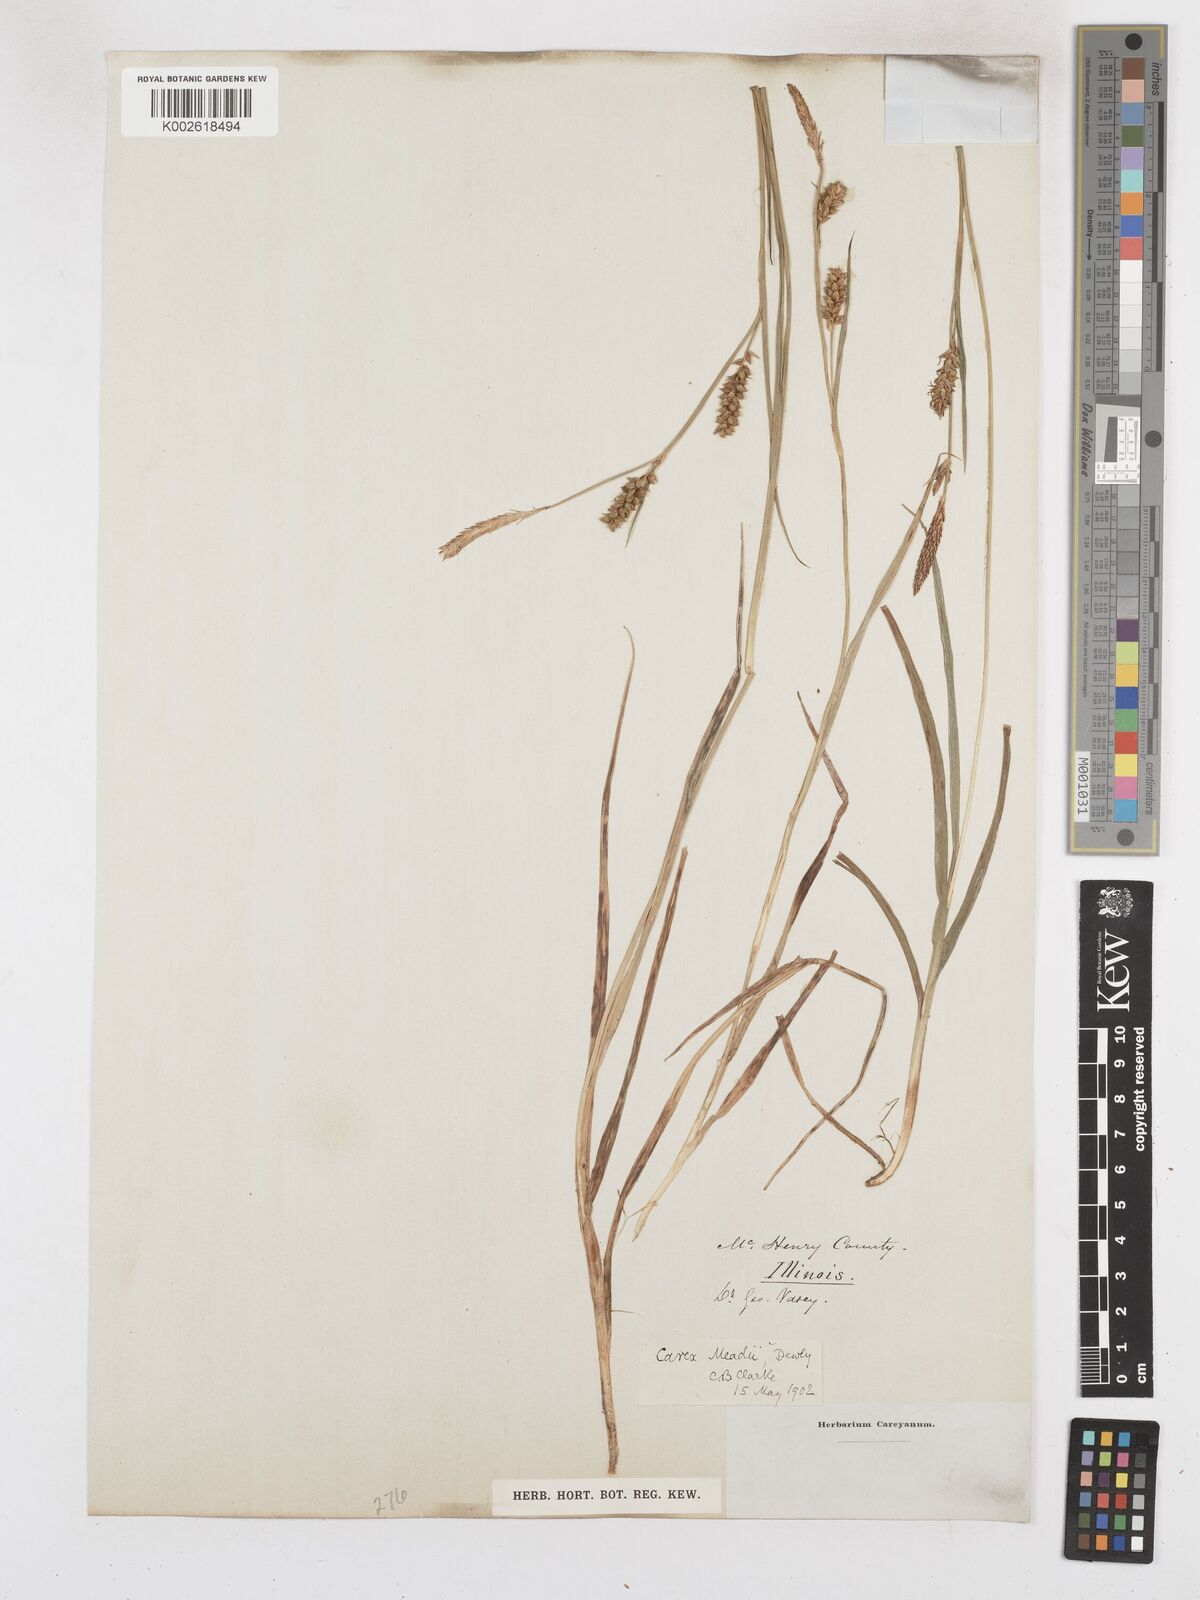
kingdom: Plantae
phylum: Tracheophyta
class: Liliopsida
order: Poales
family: Cyperaceae
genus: Carex
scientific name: Carex meadii
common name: Mead's sedge
